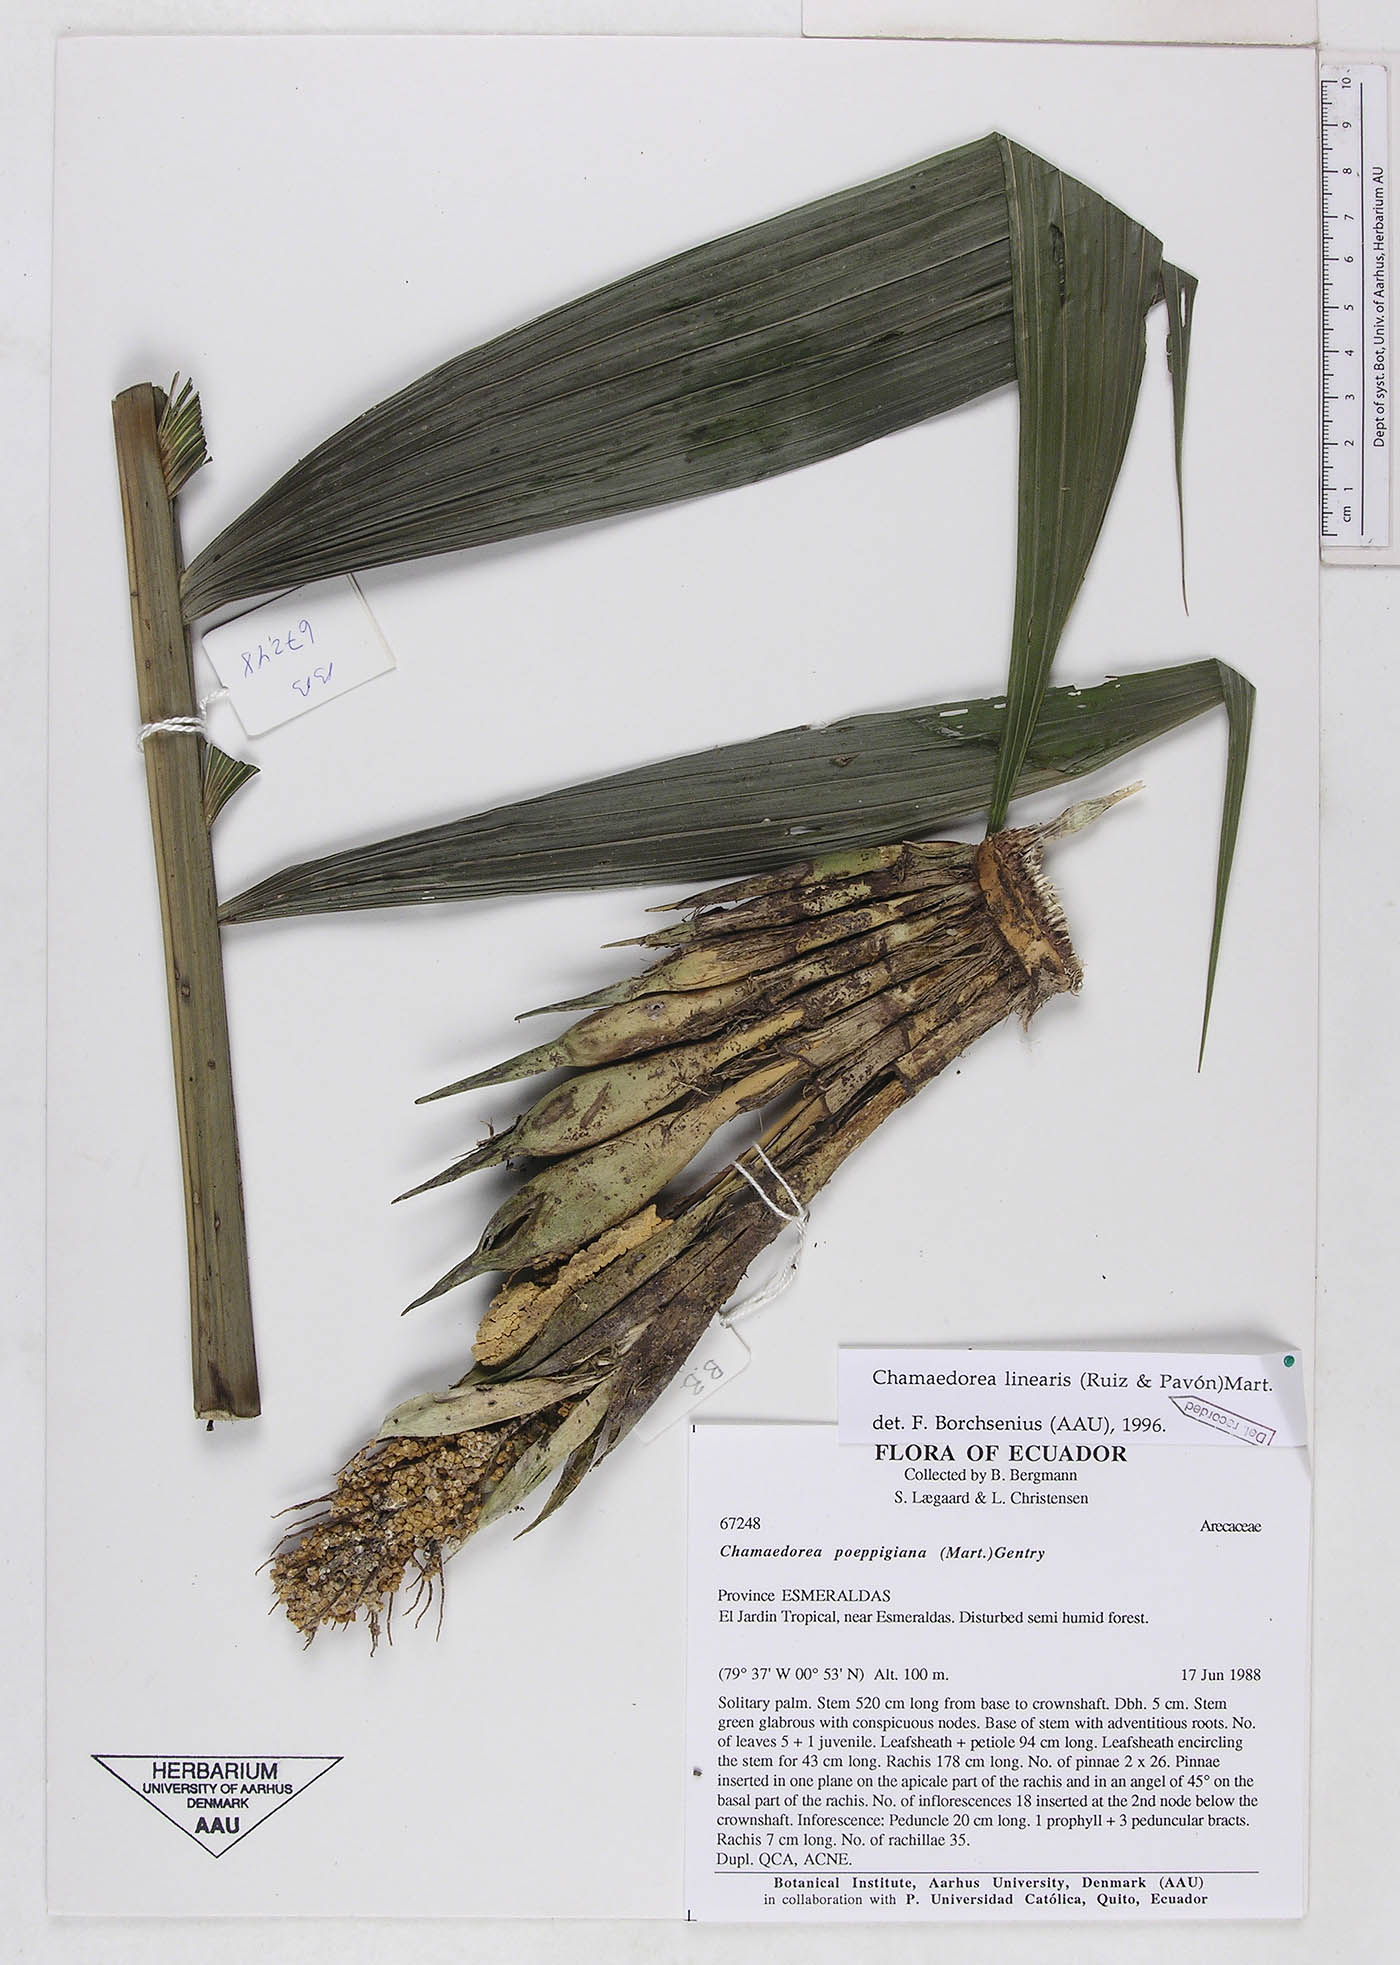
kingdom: Plantae
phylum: Tracheophyta
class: Liliopsida
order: Arecales
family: Arecaceae
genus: Chamaedorea
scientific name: Chamaedorea linearis
